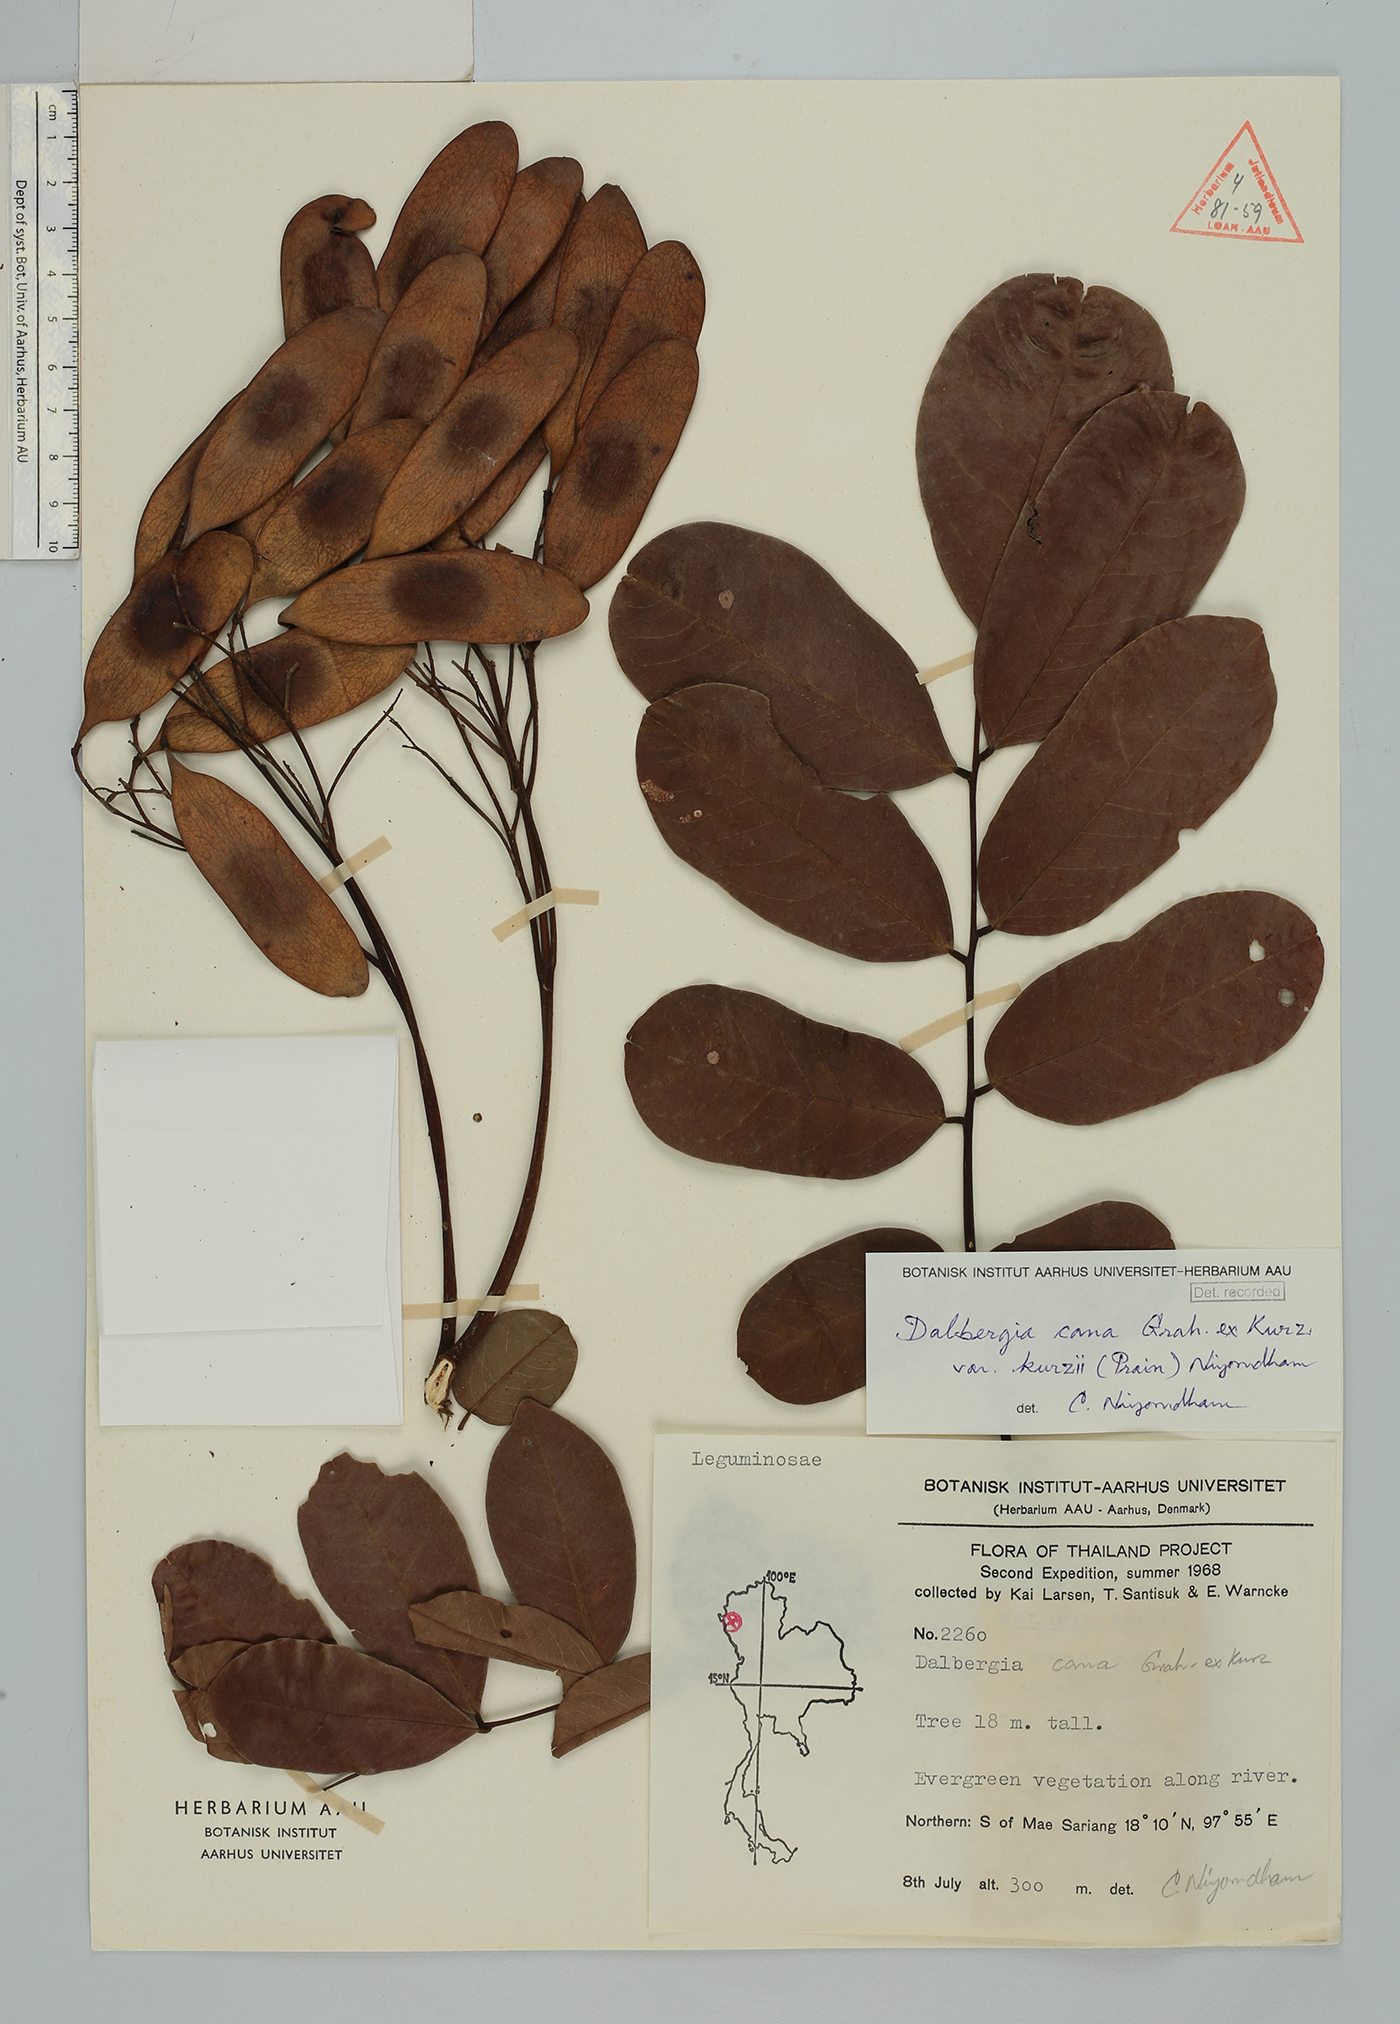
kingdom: Plantae
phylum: Tracheophyta
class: Magnoliopsida
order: Fabales
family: Fabaceae
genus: Dalbergia
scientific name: Dalbergia cana
